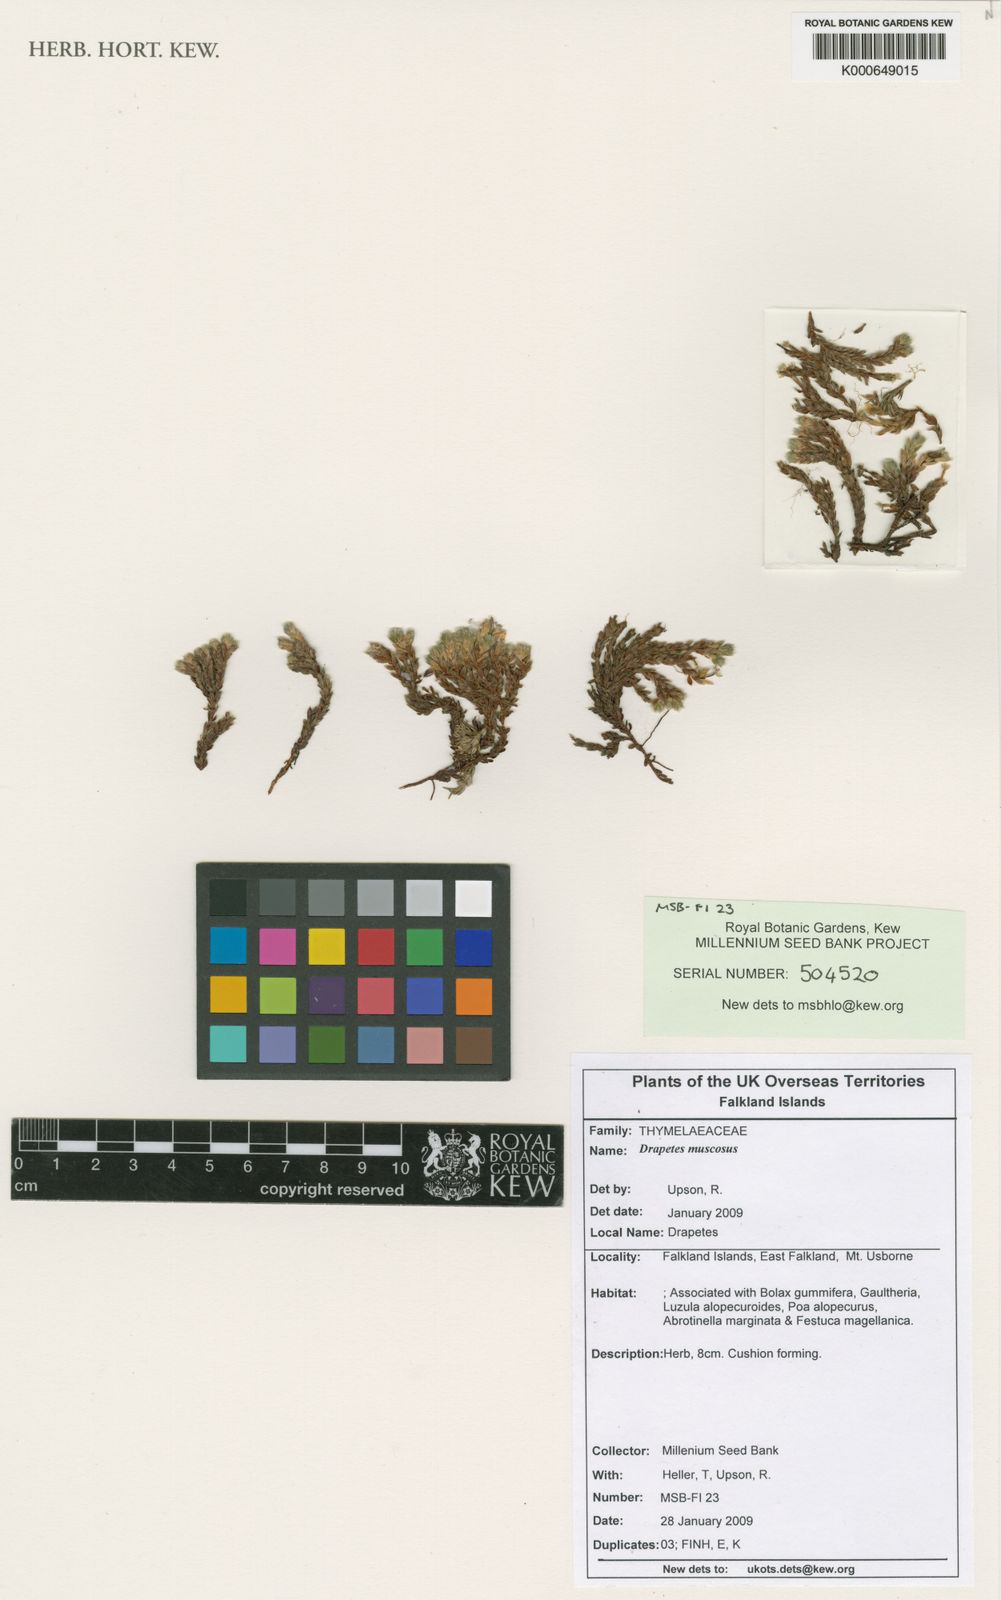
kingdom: Plantae
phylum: Tracheophyta
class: Magnoliopsida
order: Malvales
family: Thymelaeaceae
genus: Drapetes
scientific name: Drapetes muscosus
